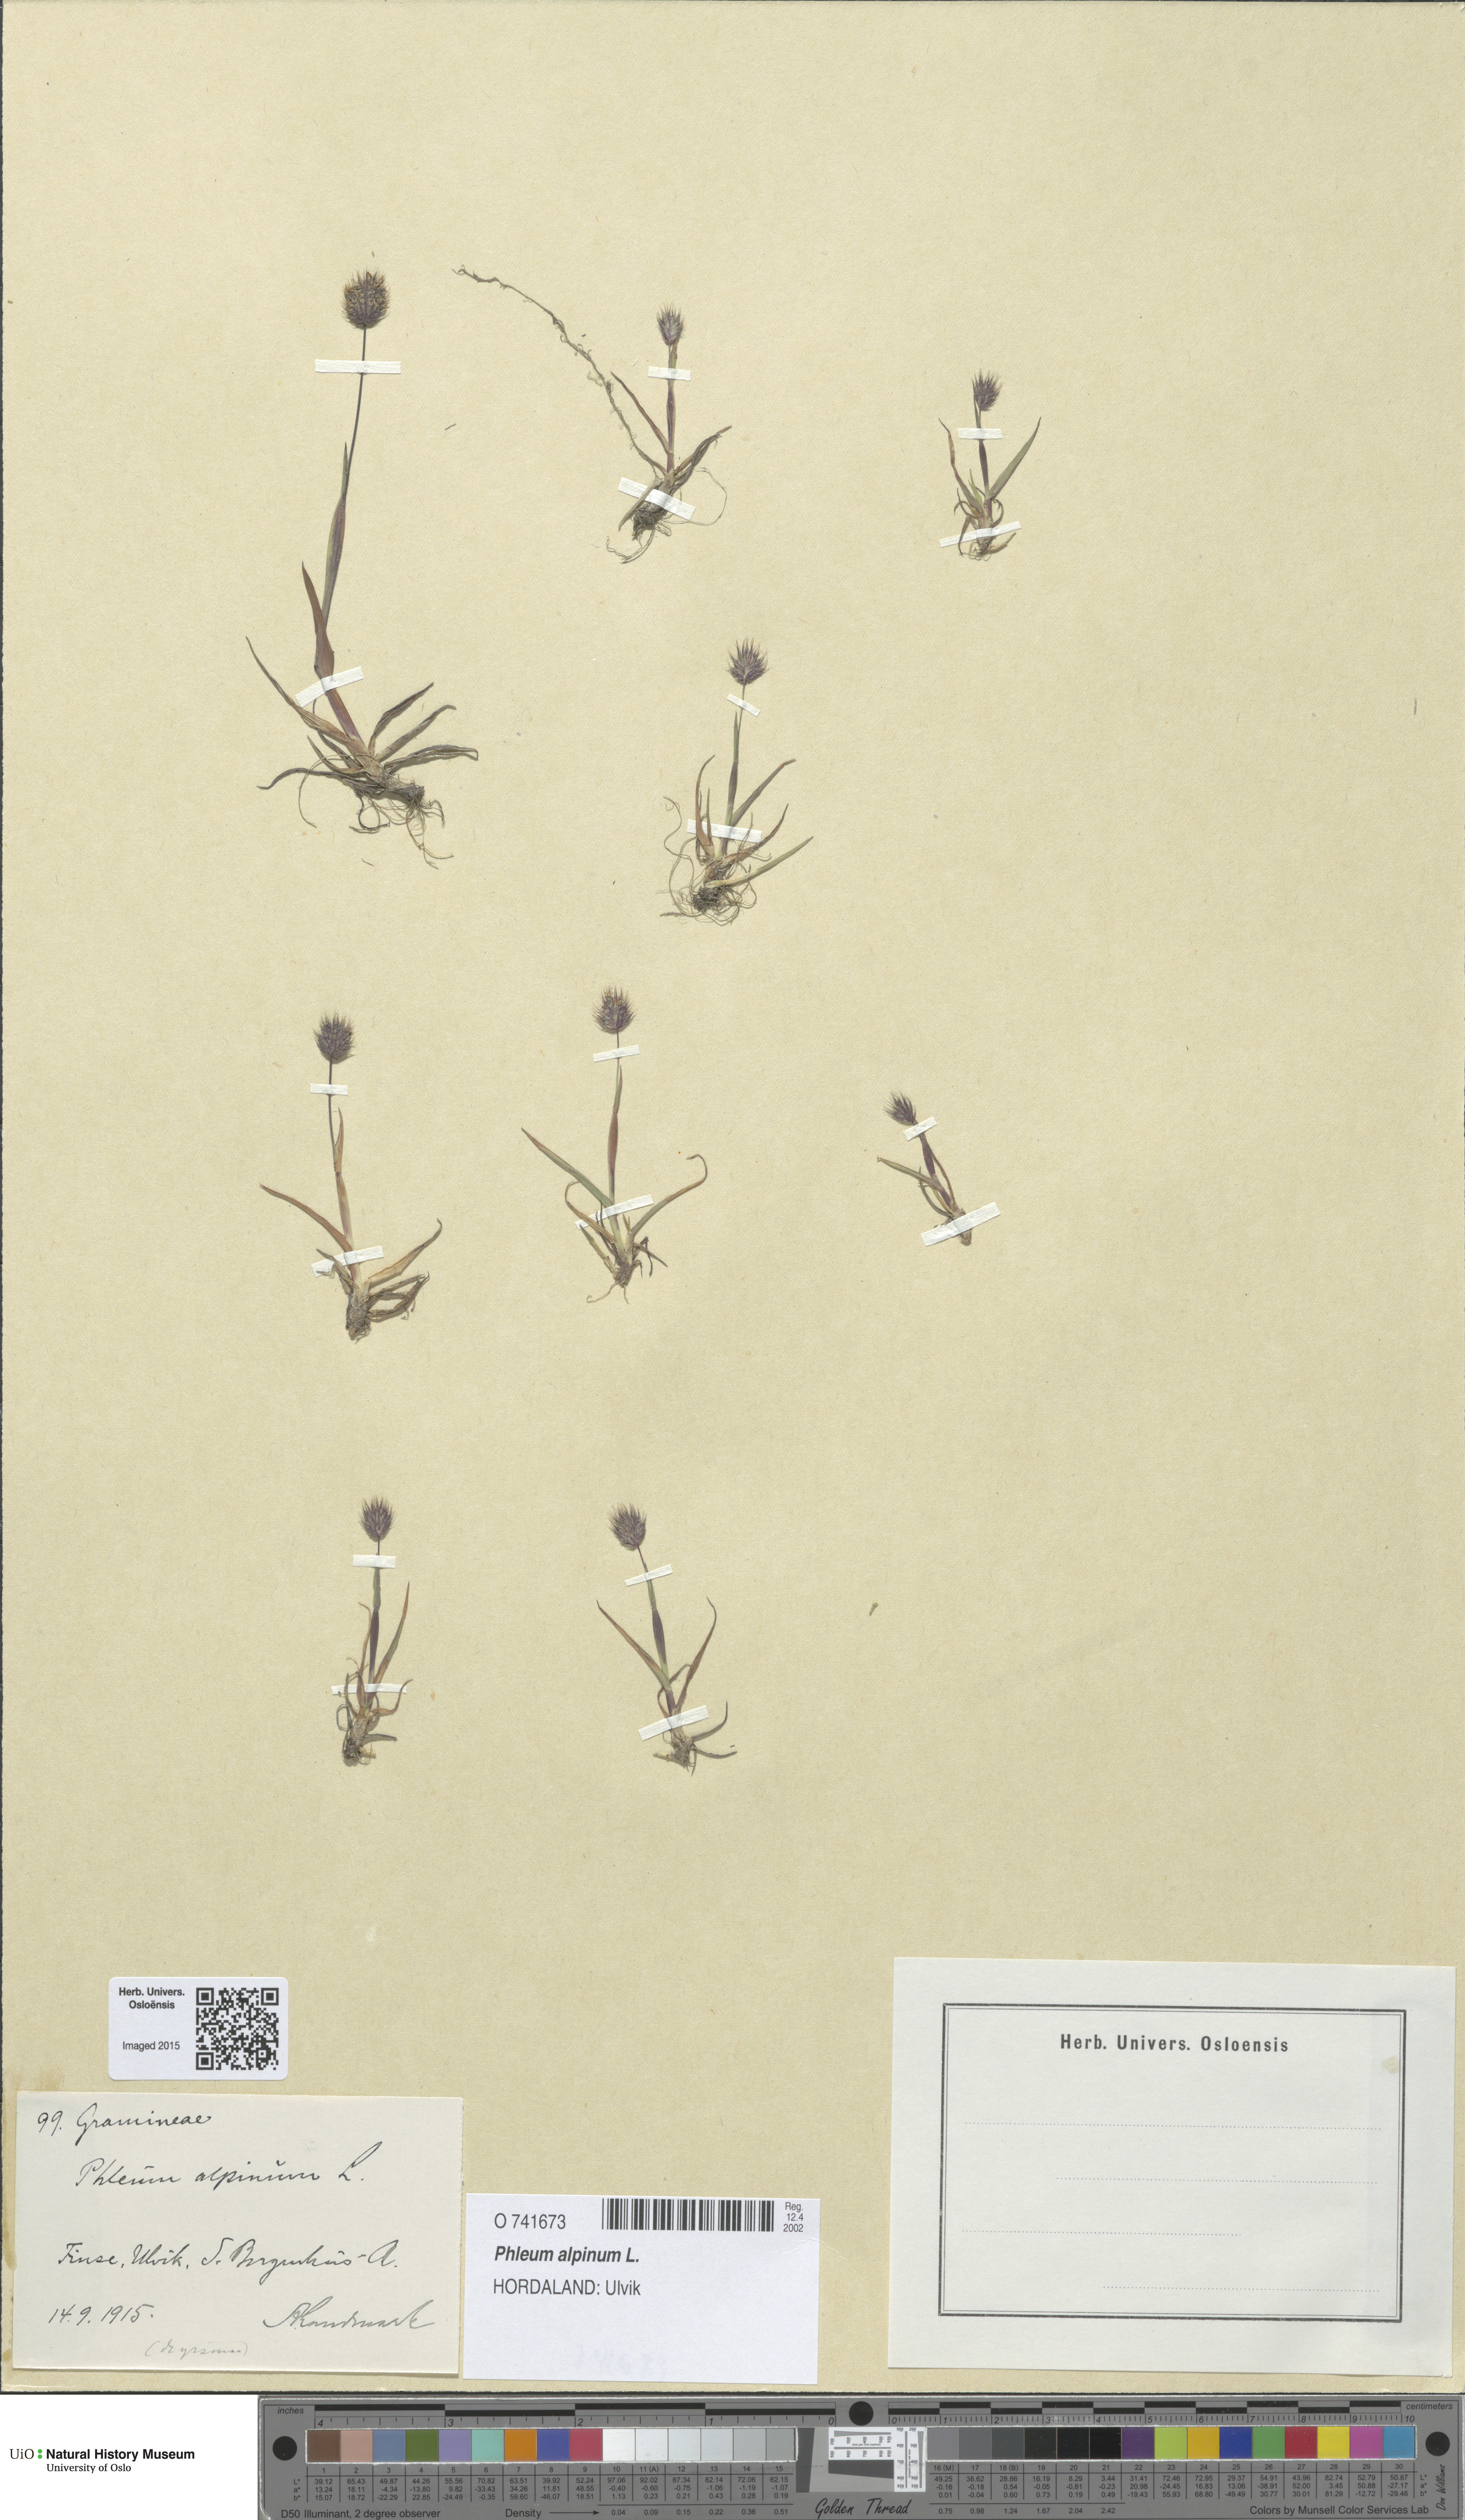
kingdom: Plantae
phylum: Tracheophyta
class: Liliopsida
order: Poales
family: Poaceae
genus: Phleum
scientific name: Phleum alpinum
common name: Alpine cat's-tail
